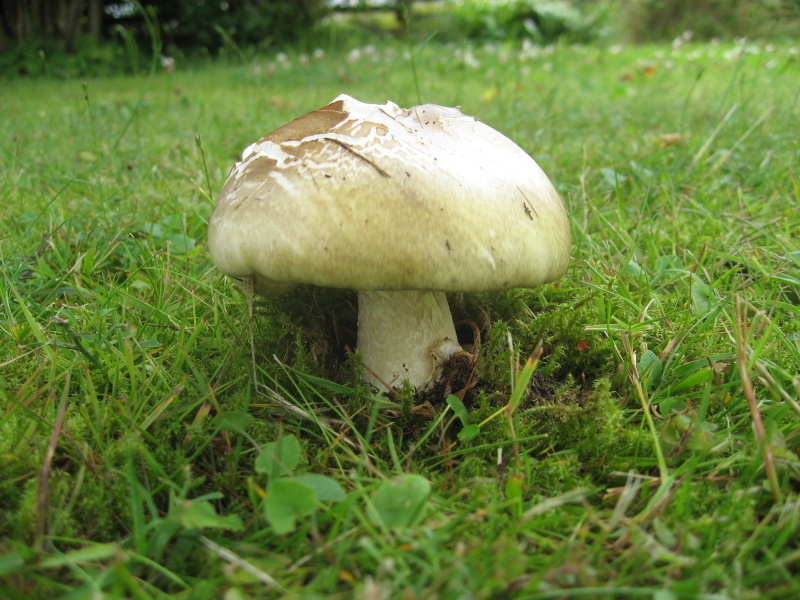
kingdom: Fungi
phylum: Basidiomycota
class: Agaricomycetes
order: Agaricales
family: Amanitaceae
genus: Amanita
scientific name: Amanita phalloides
